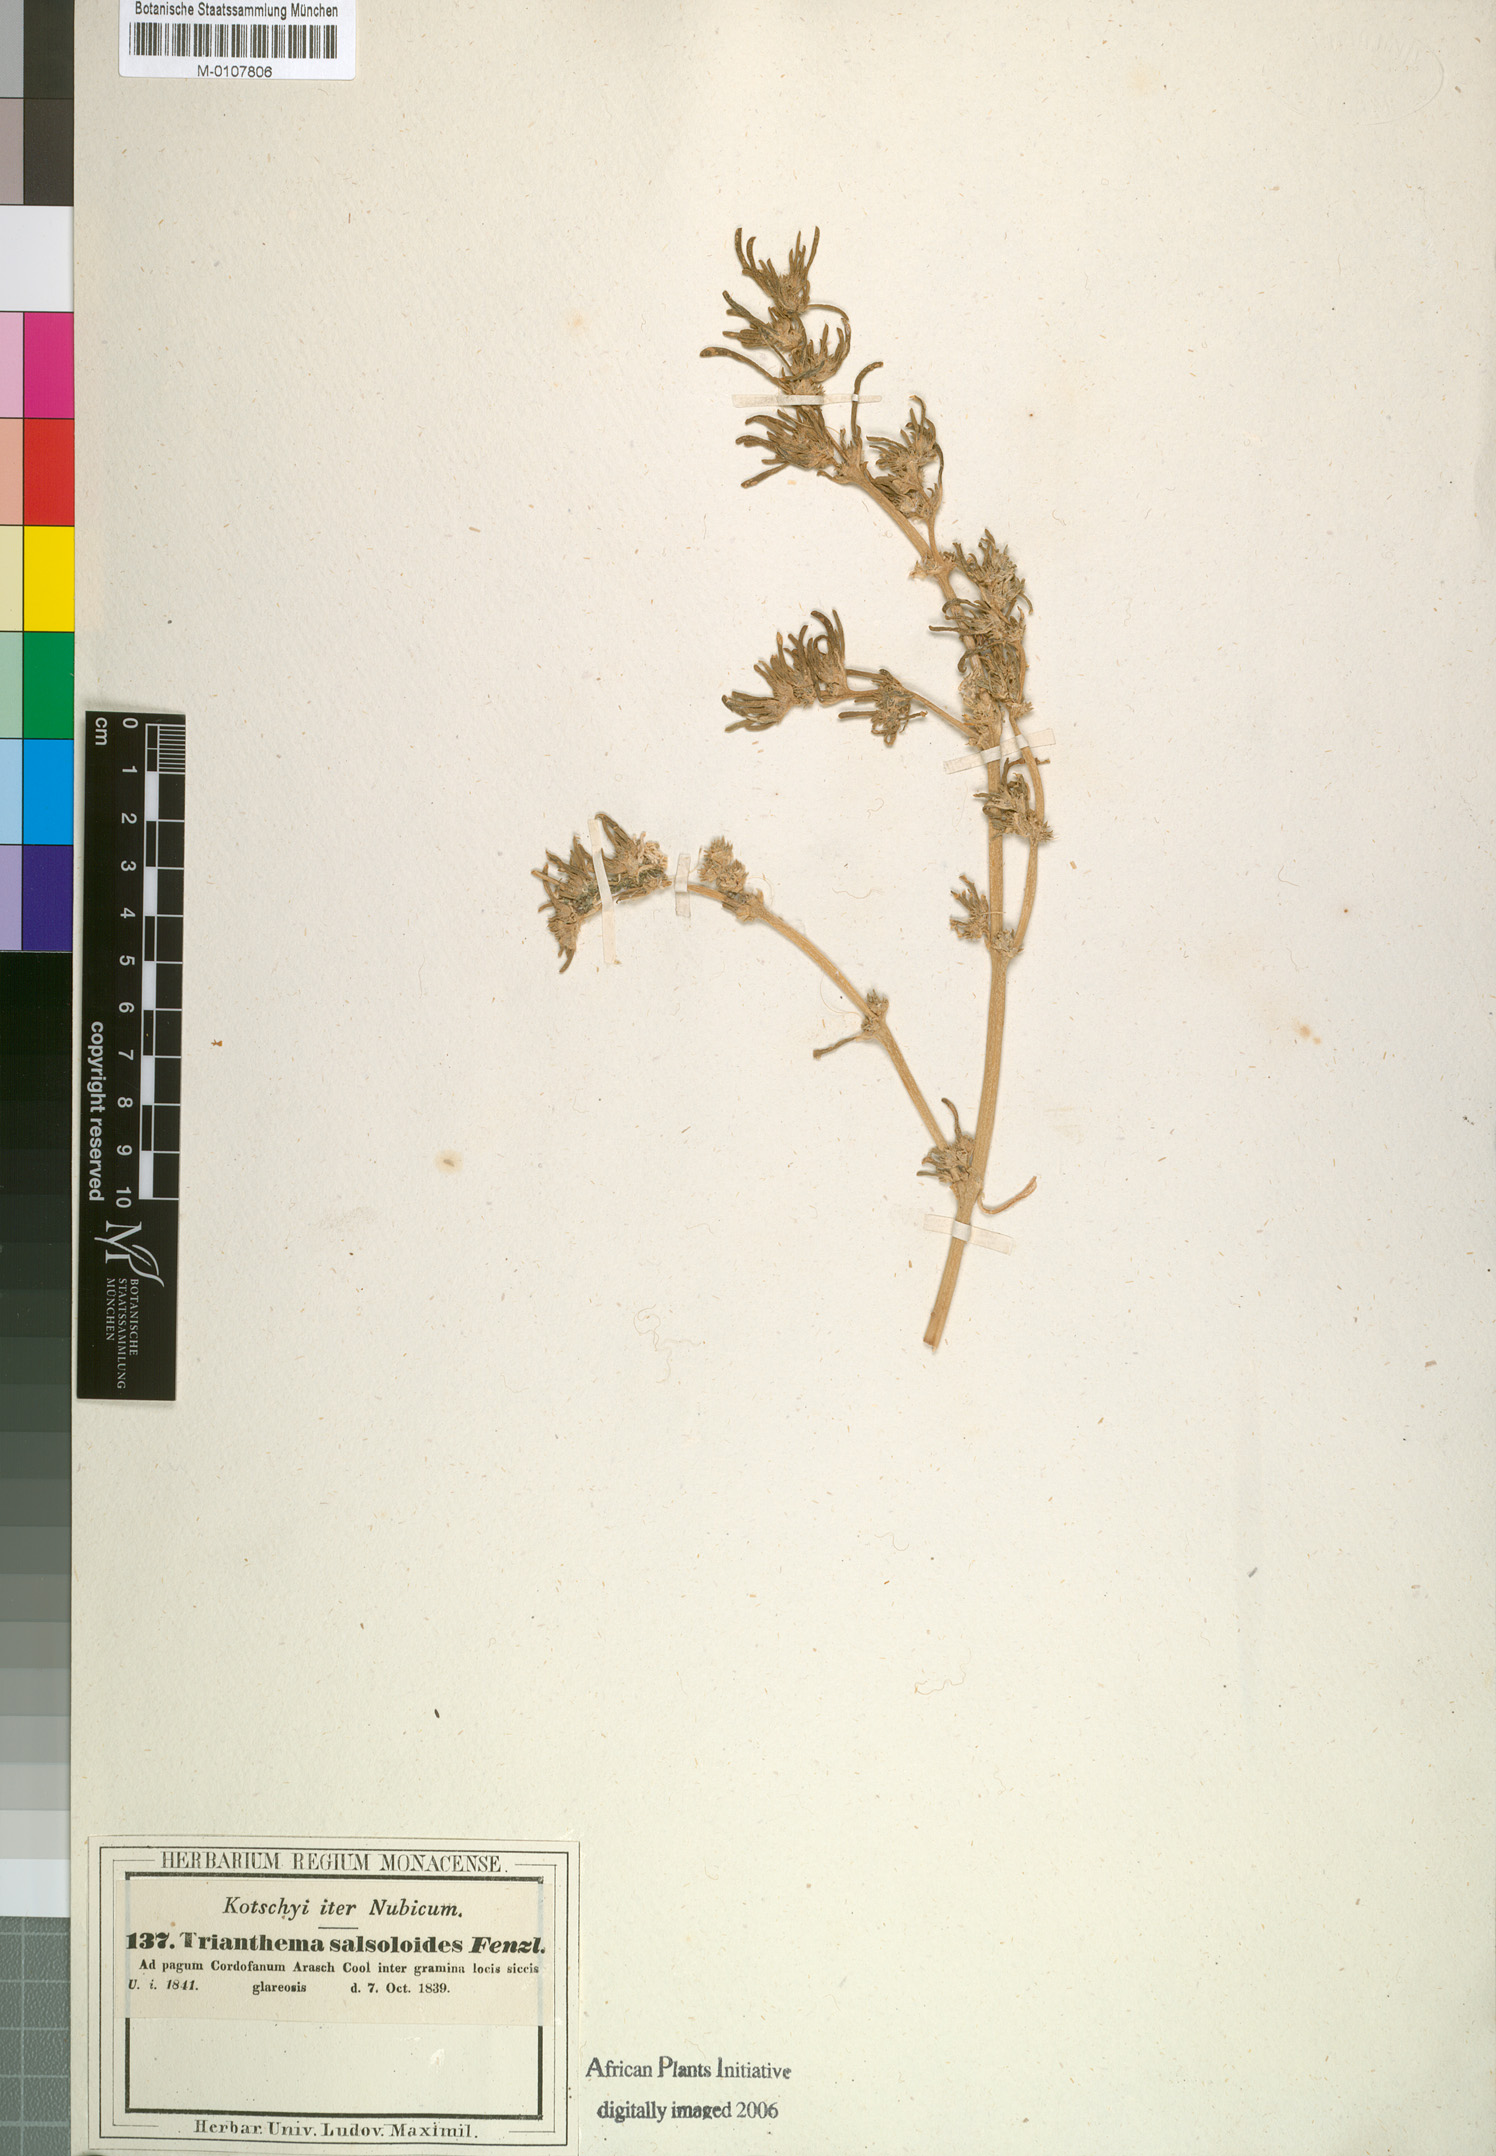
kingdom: Plantae
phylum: Tracheophyta
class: Magnoliopsida
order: Caryophyllales
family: Aizoaceae
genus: Trianthema
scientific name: Trianthema salsoloides
